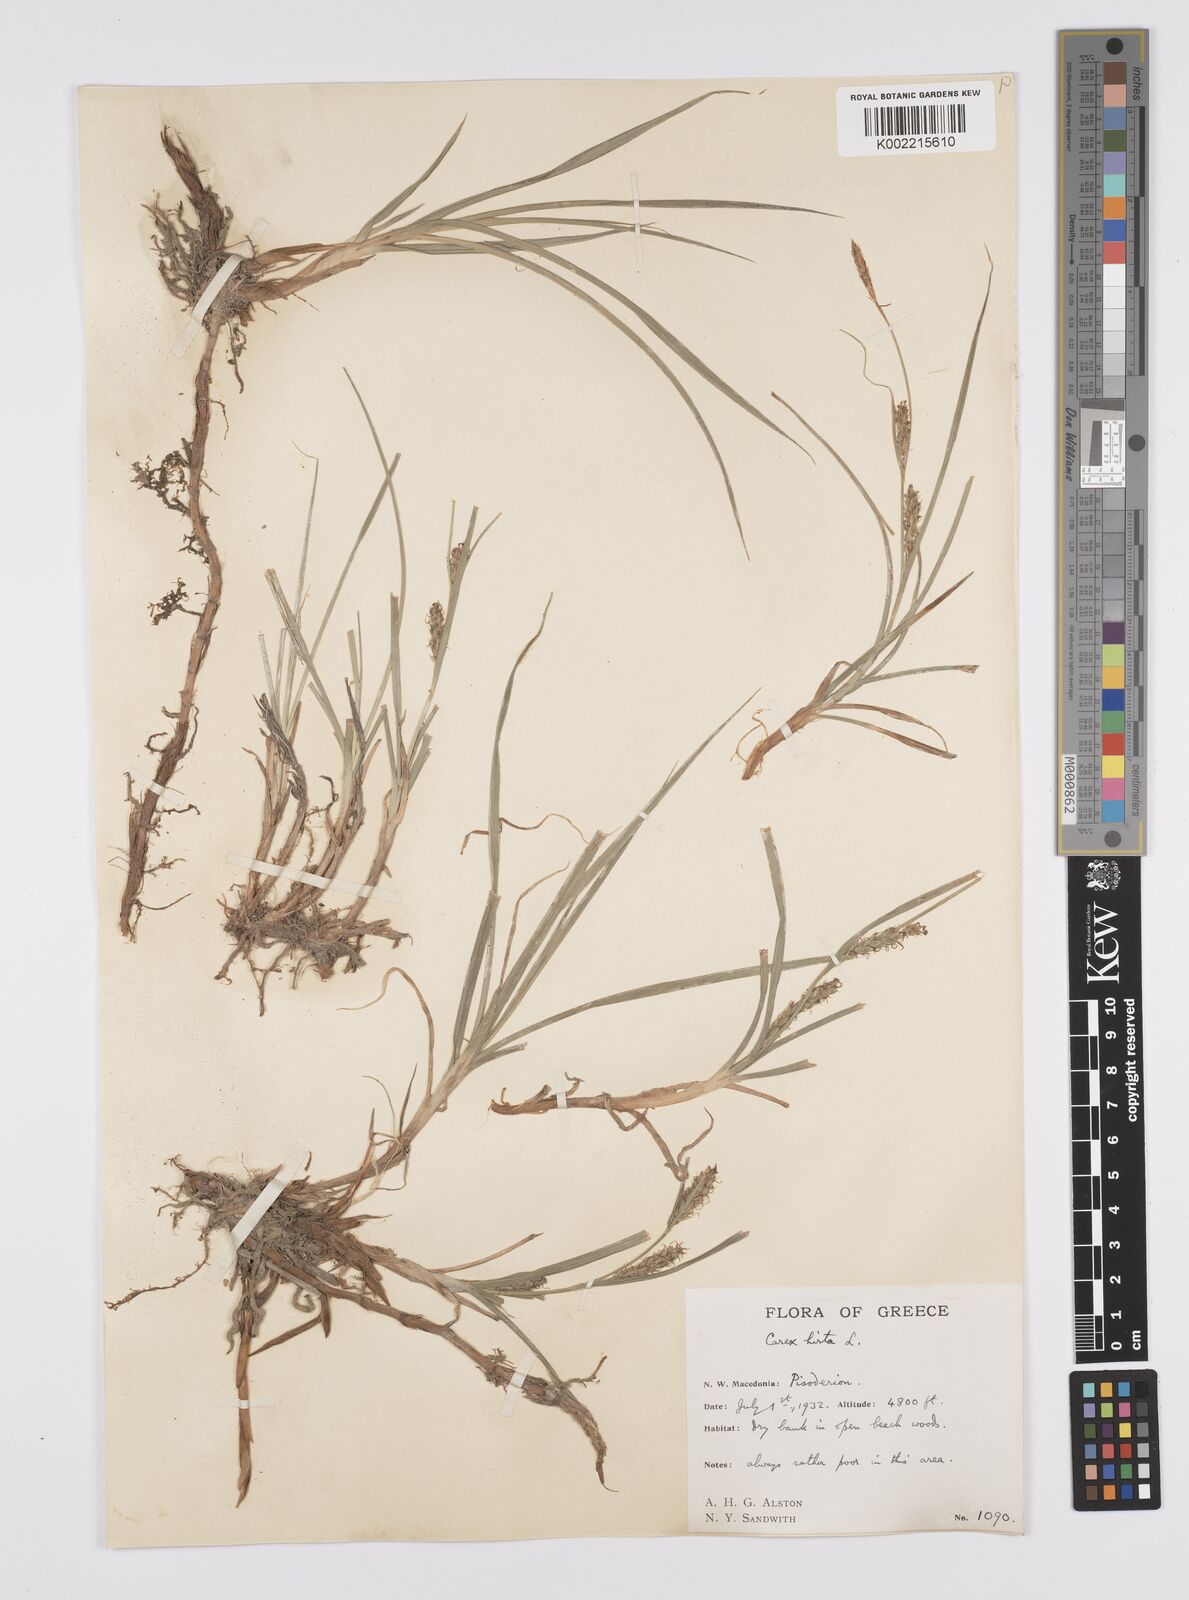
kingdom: Plantae
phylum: Tracheophyta
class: Liliopsida
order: Poales
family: Cyperaceae
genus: Carex
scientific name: Carex hirta
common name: Hairy sedge
